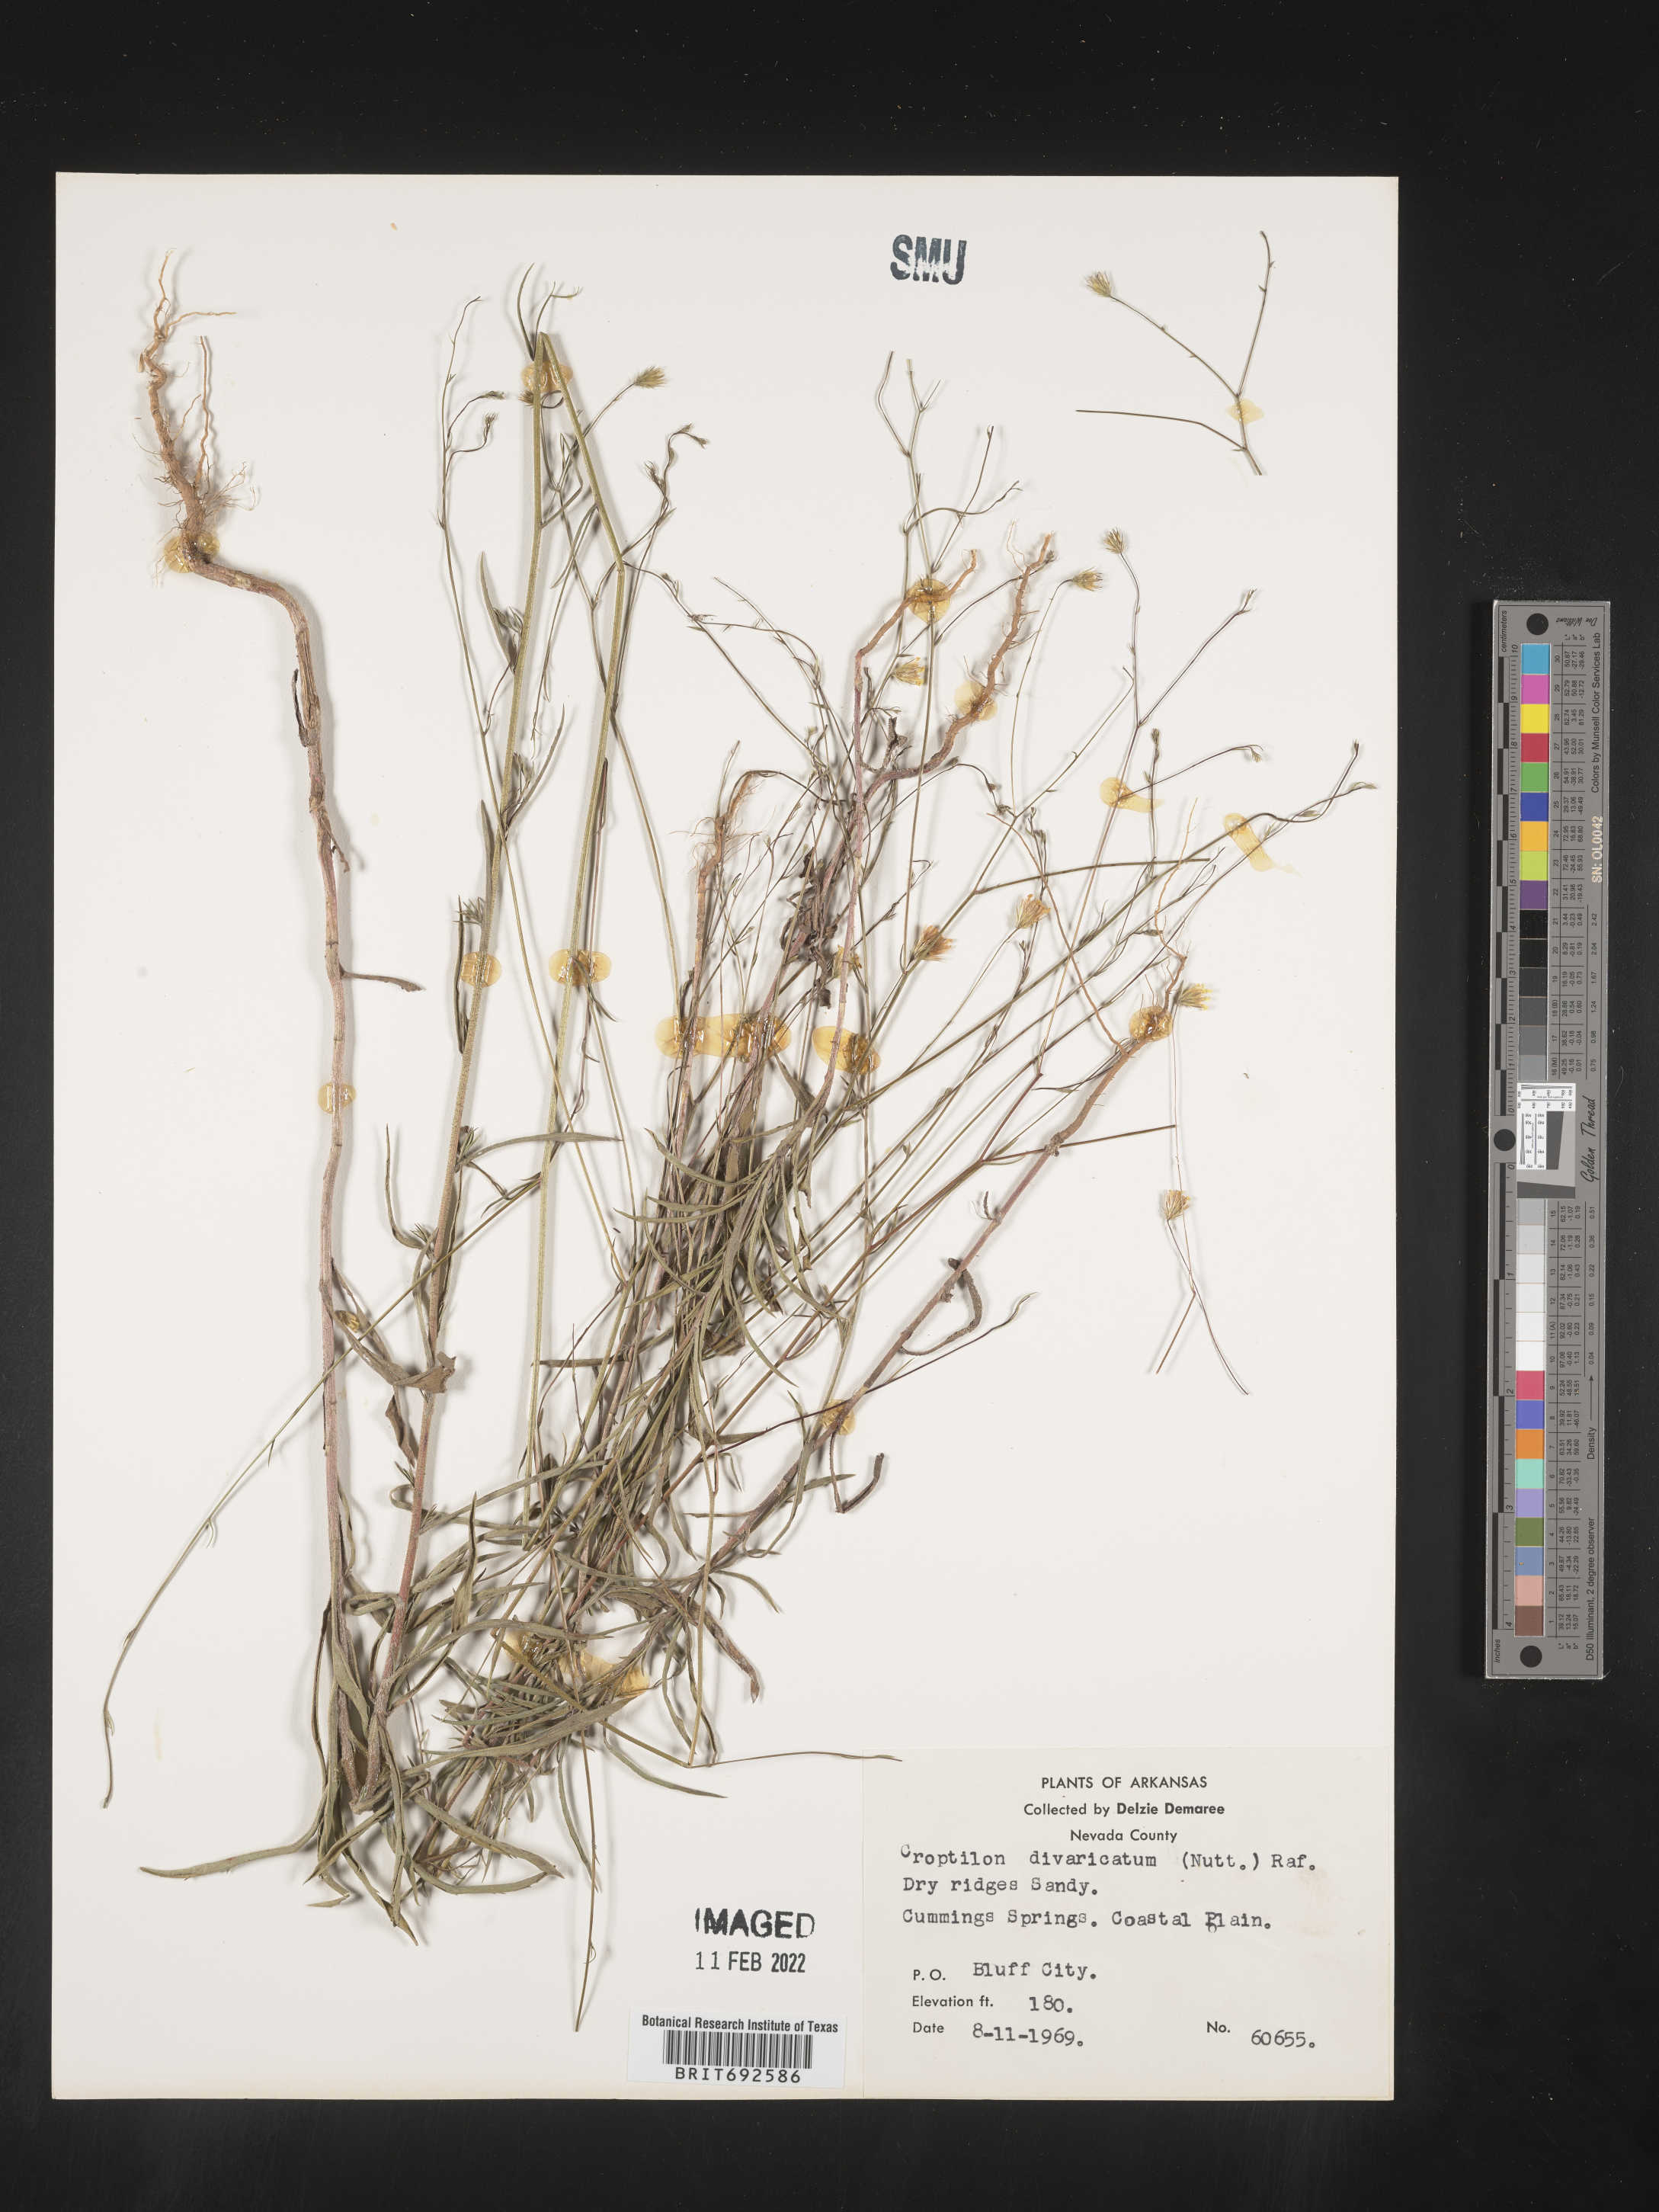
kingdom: Plantae
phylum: Tracheophyta
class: Magnoliopsida
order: Asterales
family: Asteraceae
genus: Croptilon
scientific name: Croptilon divaricatum
